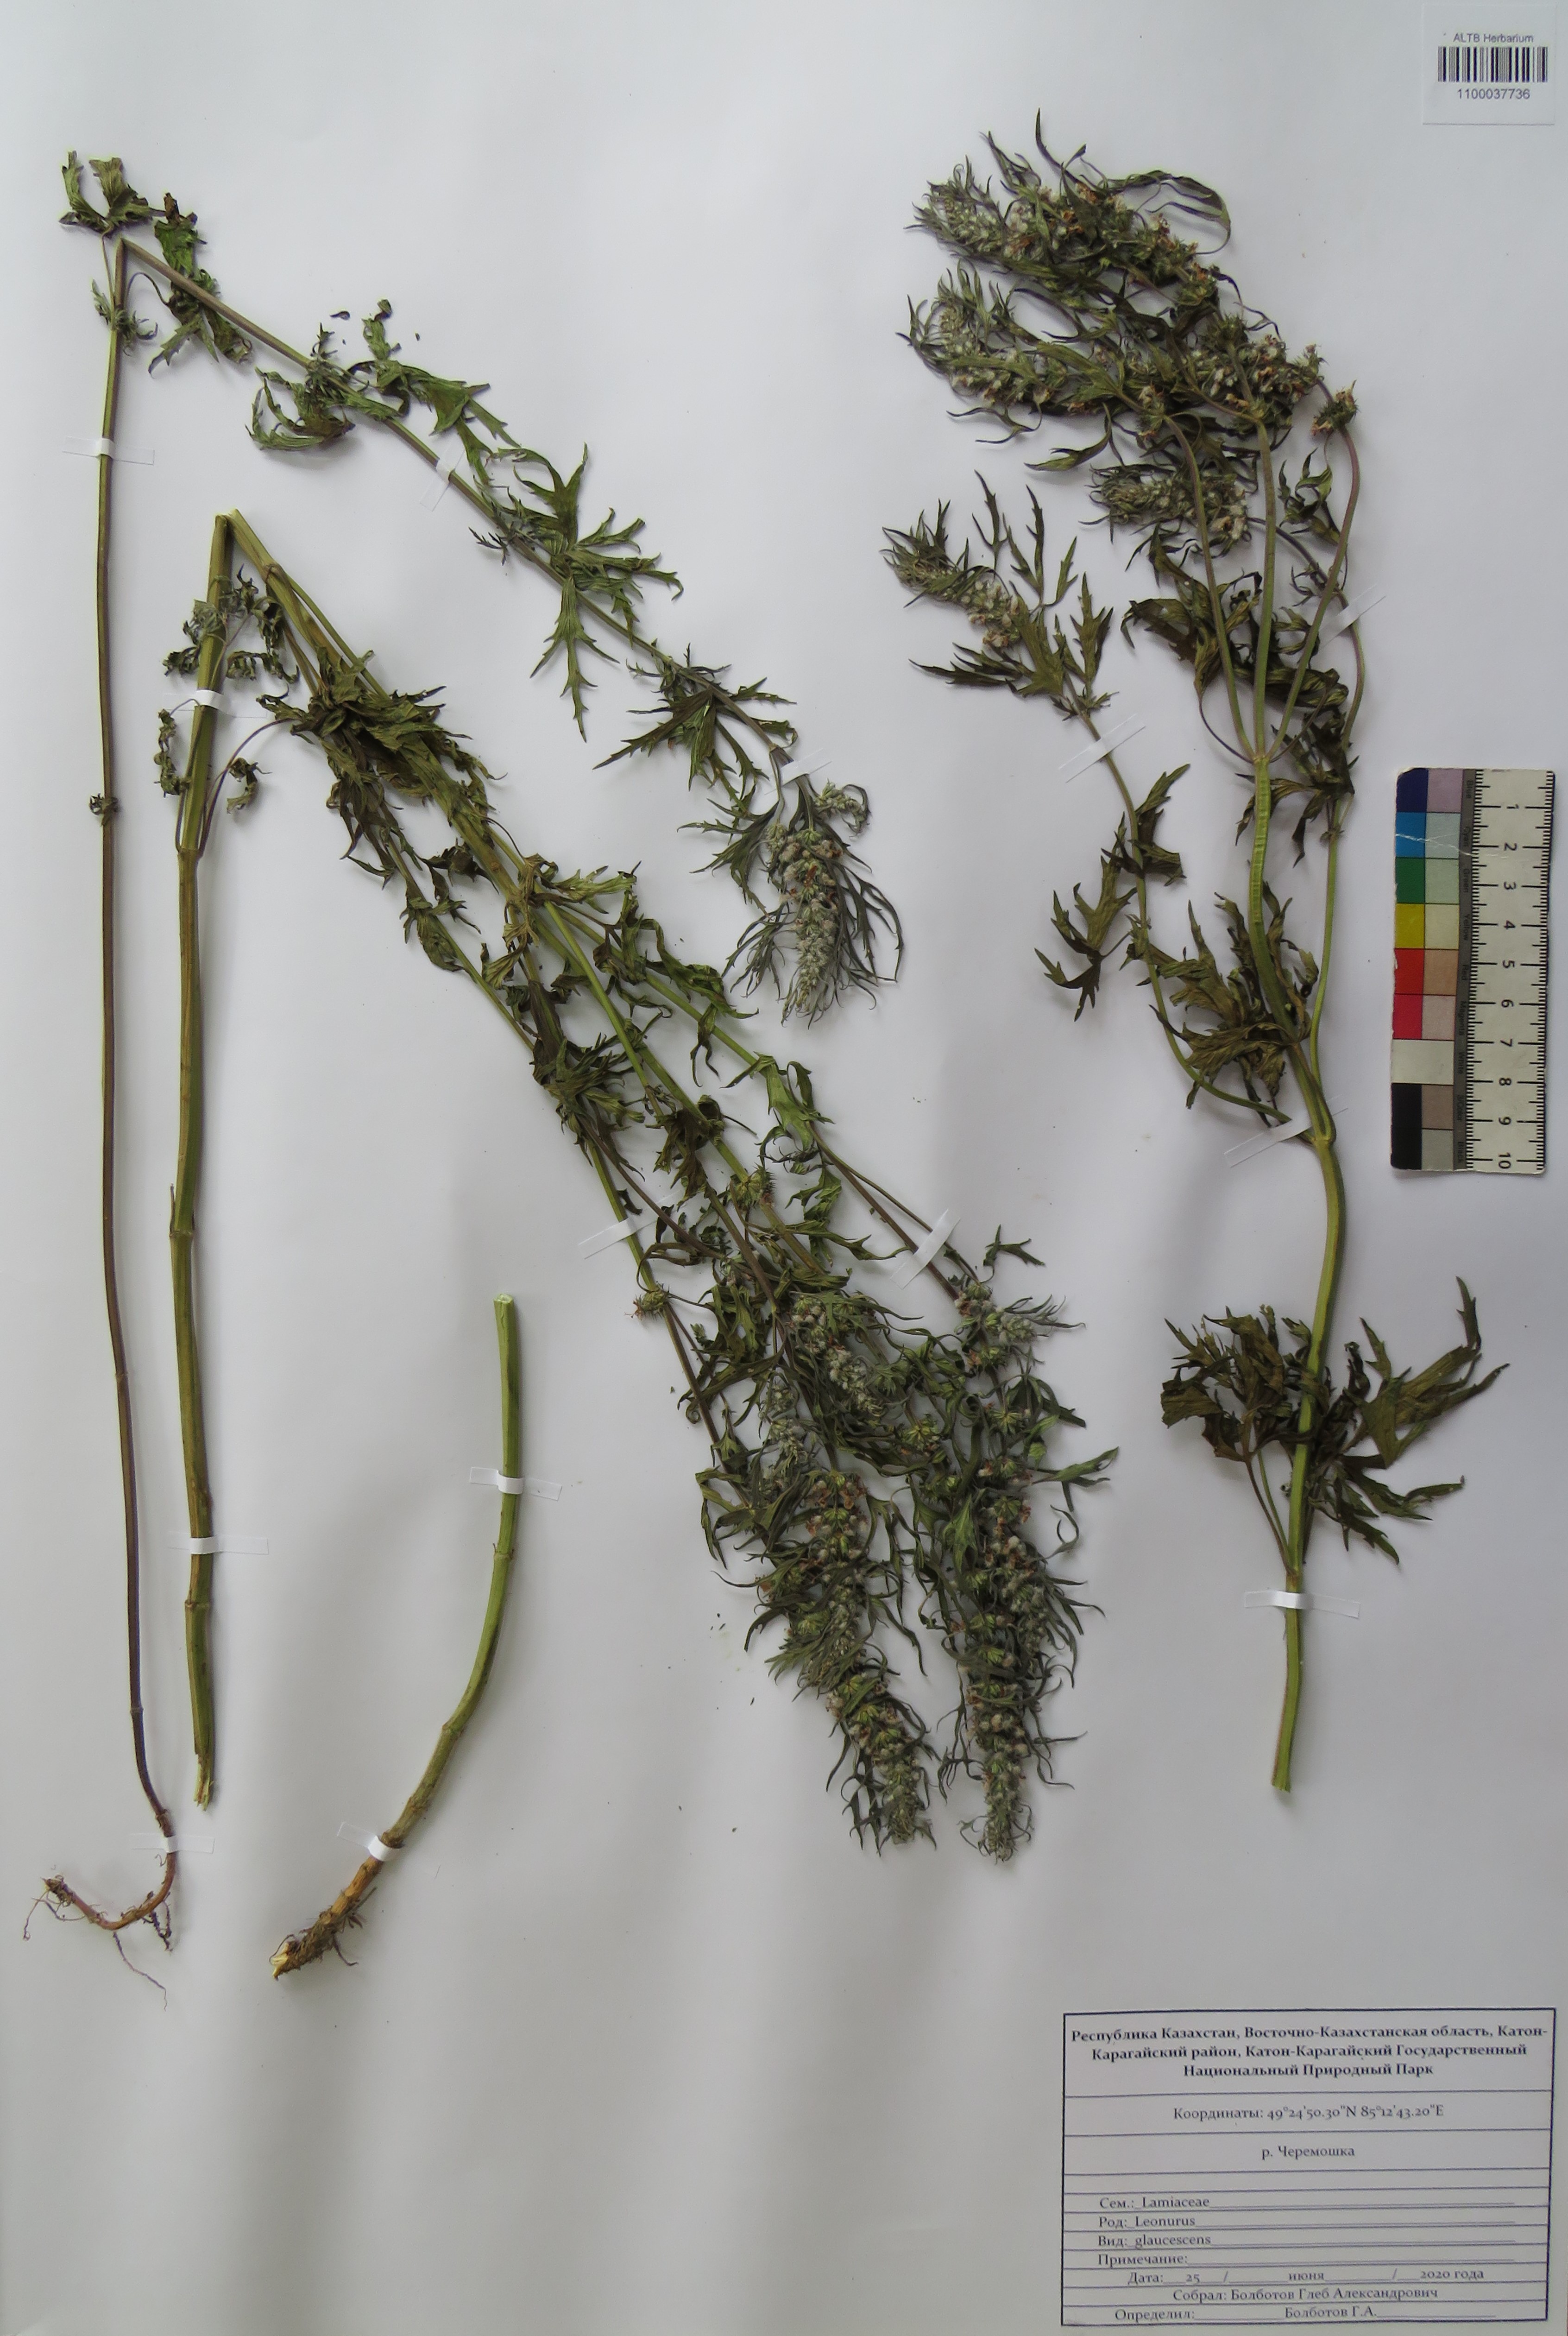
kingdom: Plantae
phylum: Tracheophyta
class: Magnoliopsida
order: Lamiales
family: Lamiaceae
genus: Leonurus
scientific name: Leonurus glaucescens
